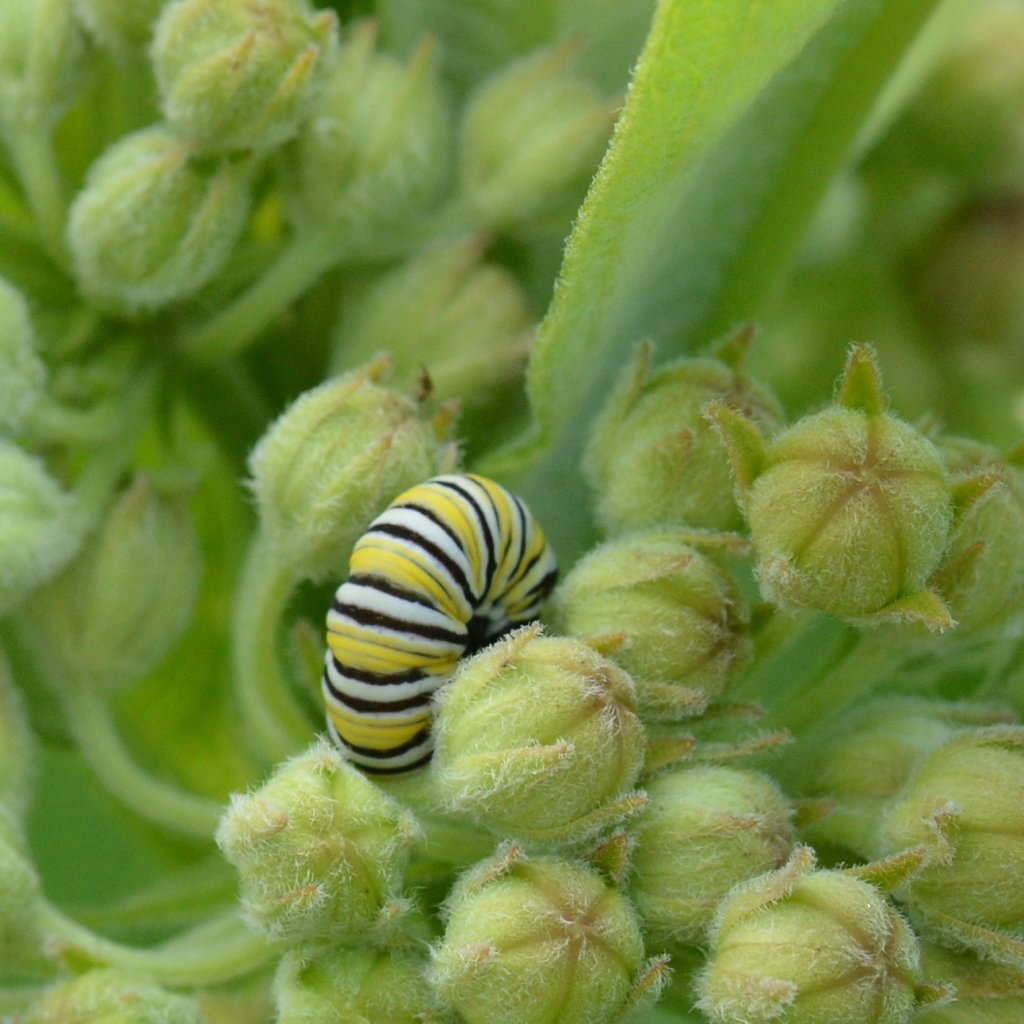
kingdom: Animalia
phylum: Arthropoda
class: Insecta
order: Lepidoptera
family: Nymphalidae
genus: Danaus
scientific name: Danaus plexippus
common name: Monarch
